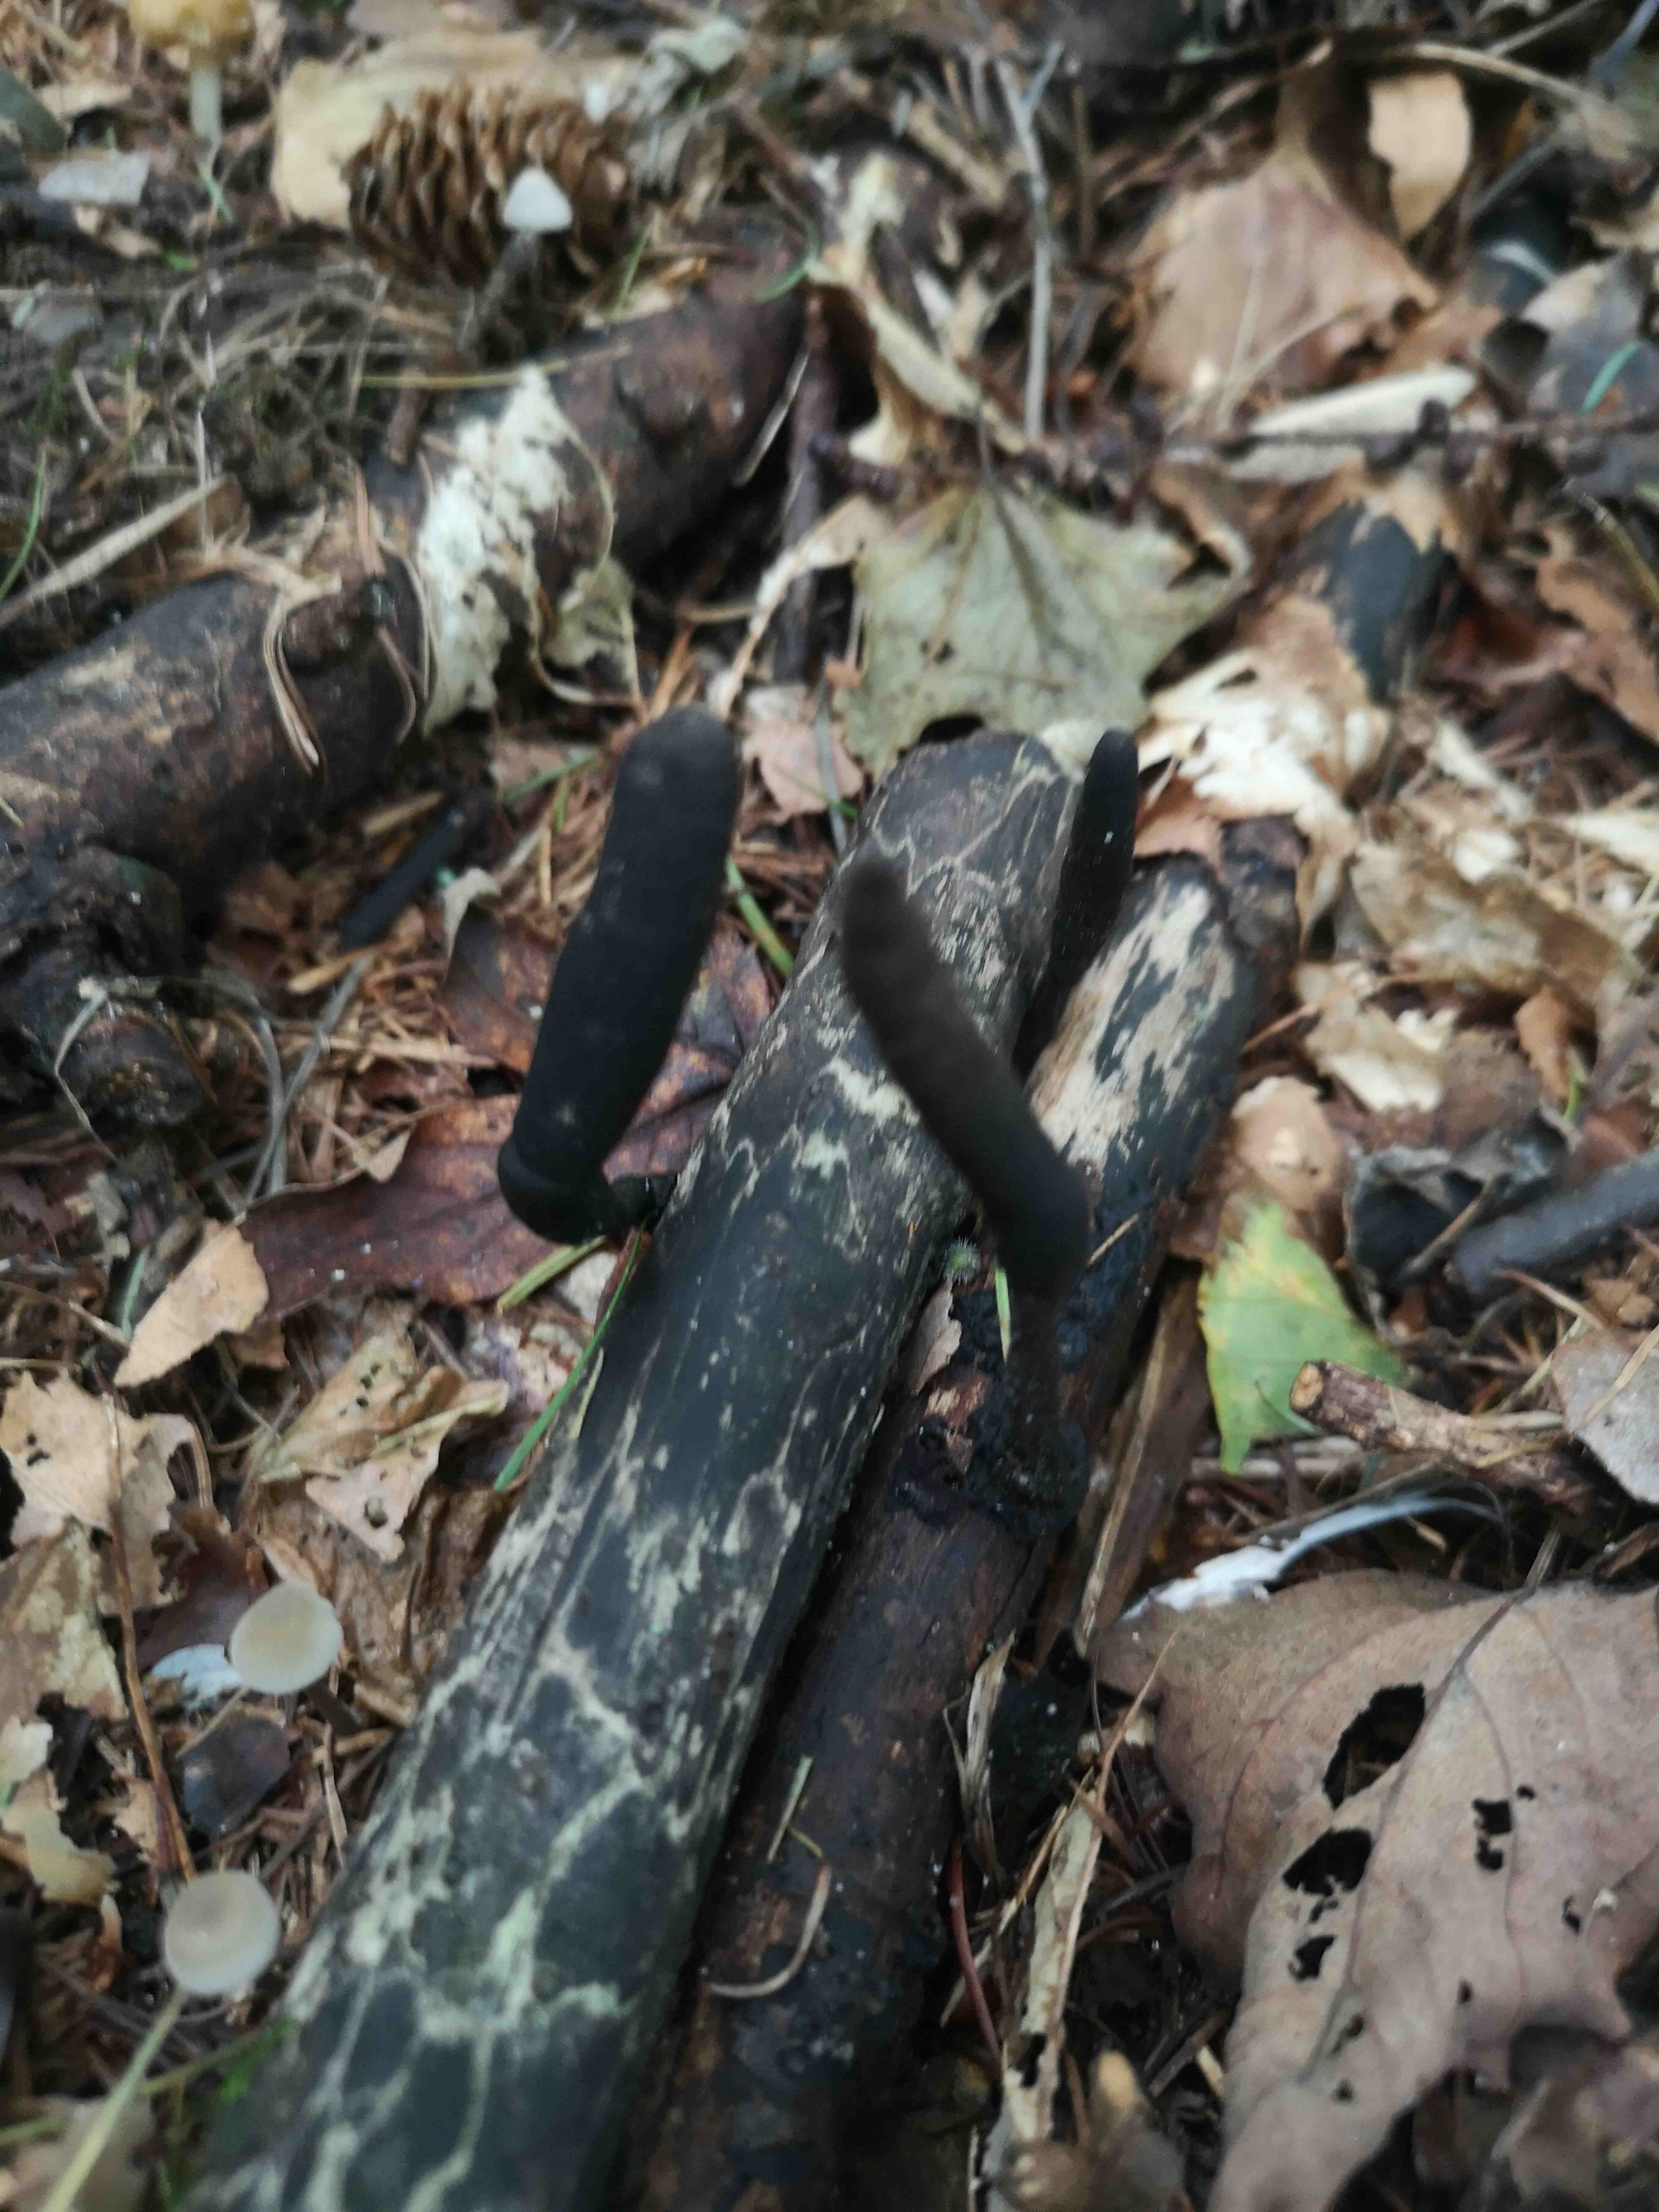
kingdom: Fungi
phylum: Ascomycota
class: Sordariomycetes
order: Xylariales
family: Xylariaceae
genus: Xylaria
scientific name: Xylaria longipes
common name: slank stødsvamp
